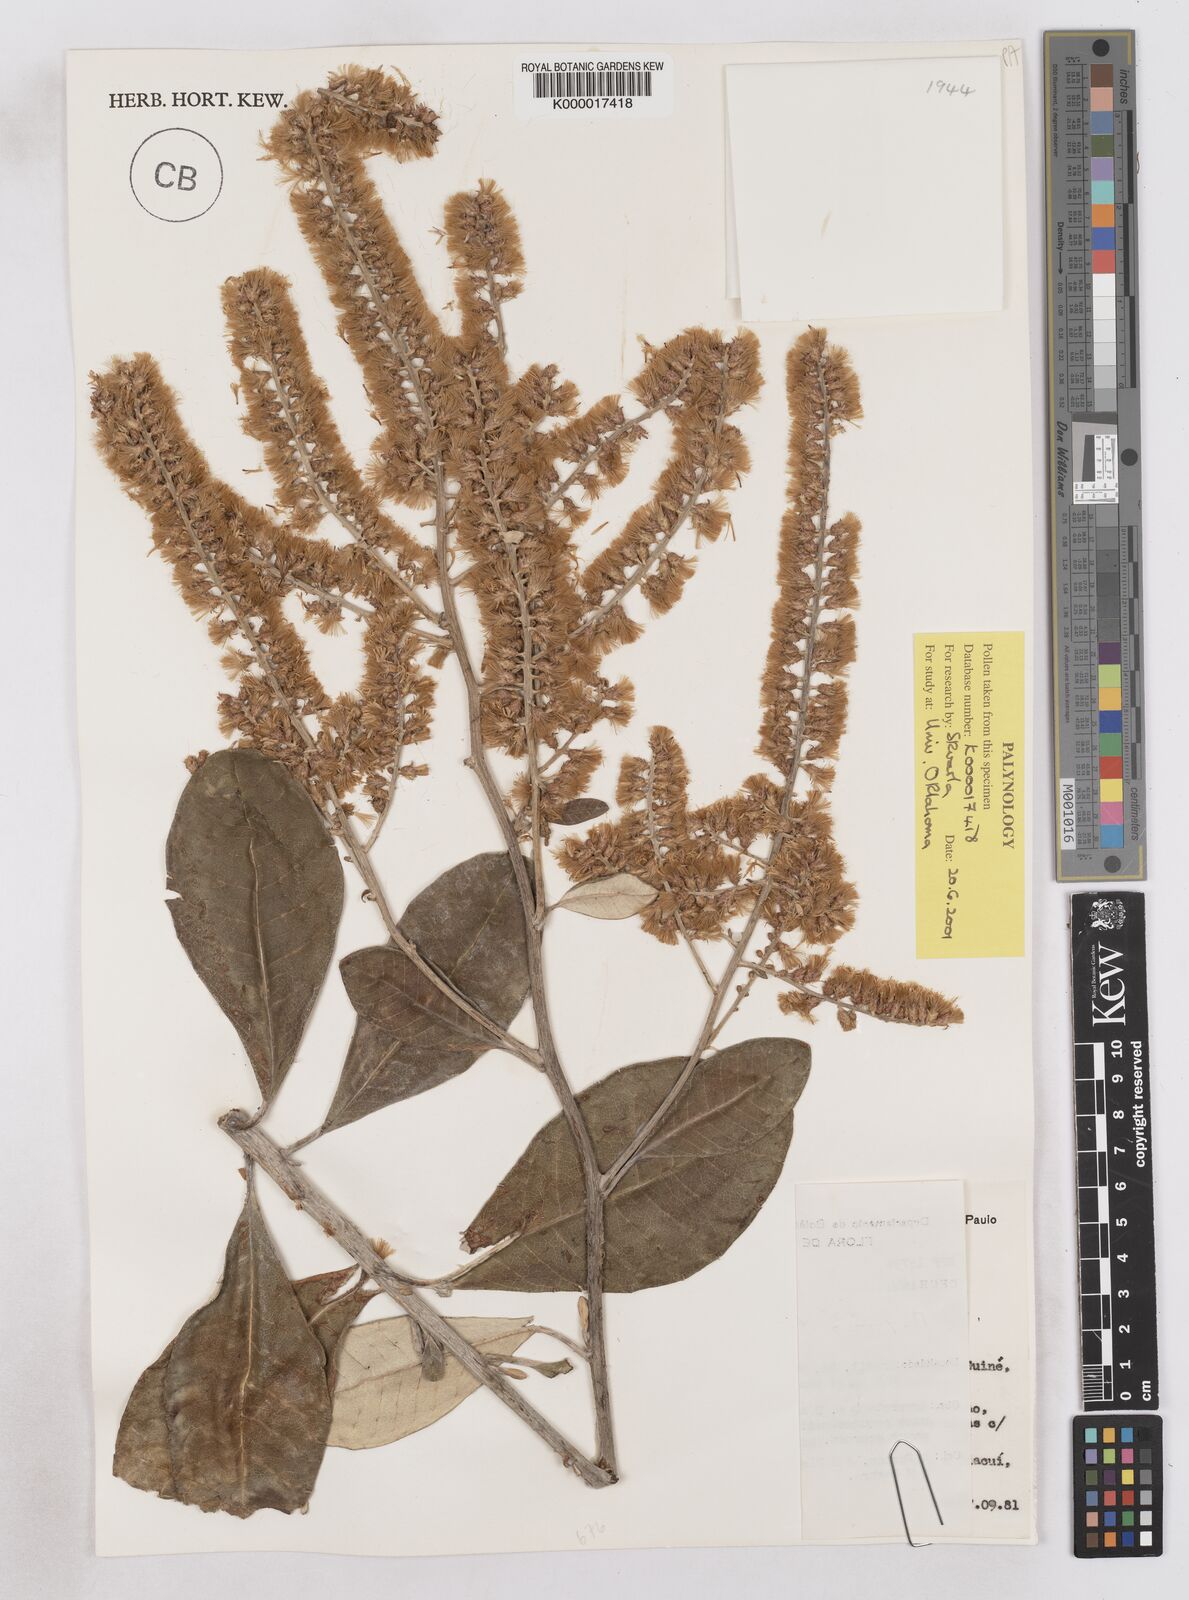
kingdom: Plantae
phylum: Tracheophyta
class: Magnoliopsida
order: Asterales
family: Asteraceae
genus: Moquinia
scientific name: Moquinia racemosa
